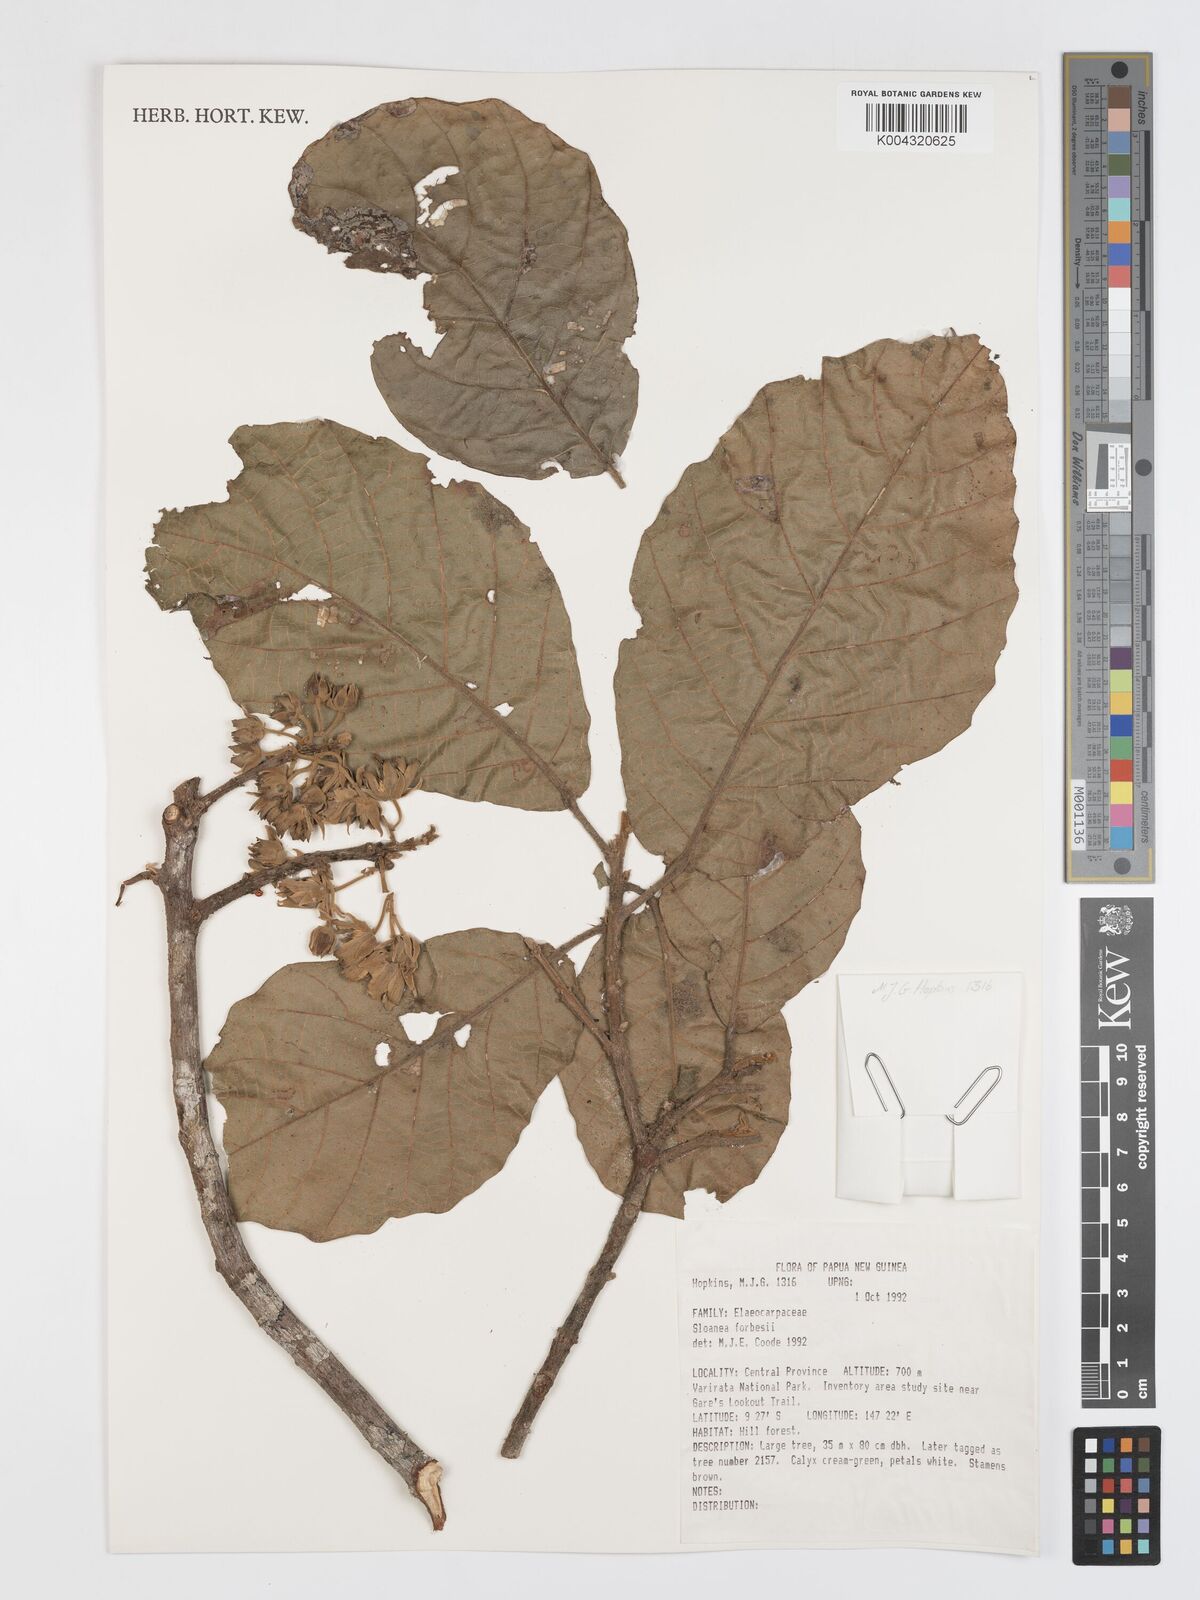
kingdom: Plantae
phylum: Tracheophyta
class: Magnoliopsida
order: Oxalidales
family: Elaeocarpaceae
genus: Sloanea
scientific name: Sloanea forbesii
